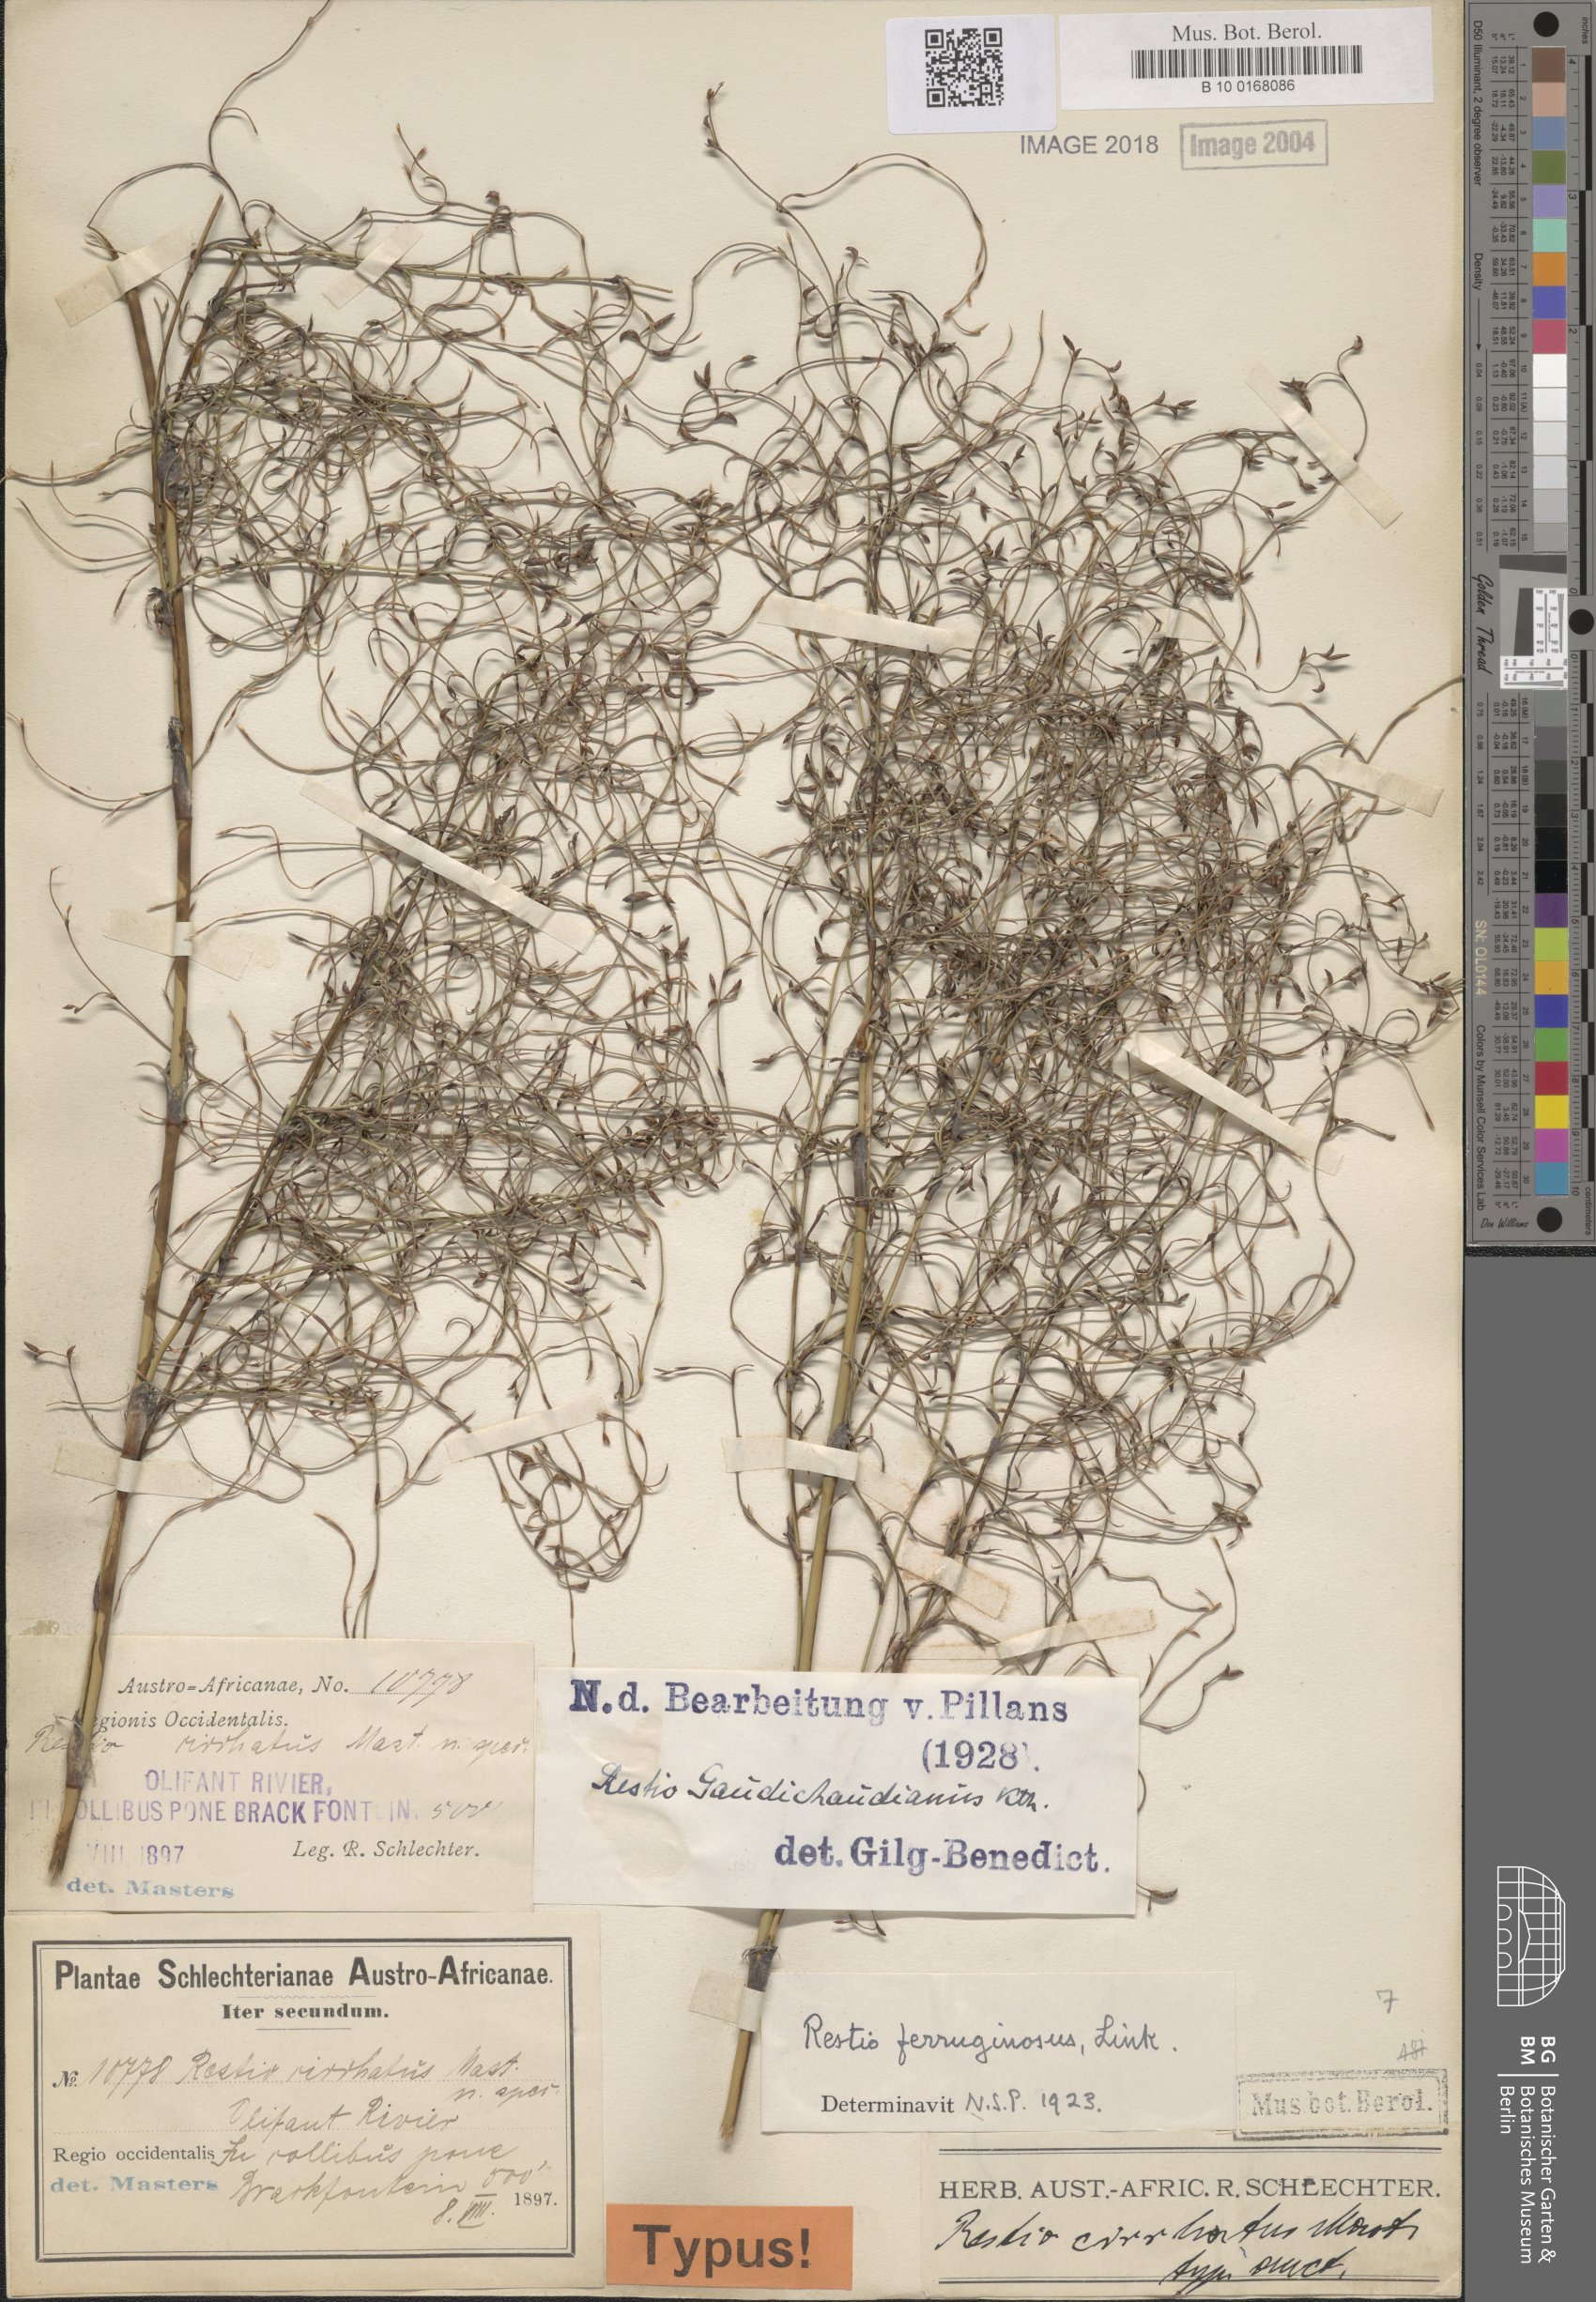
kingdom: Plantae
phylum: Tracheophyta
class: Liliopsida
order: Poales
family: Restionaceae
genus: Restio
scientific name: Restio gaudichaudianus
